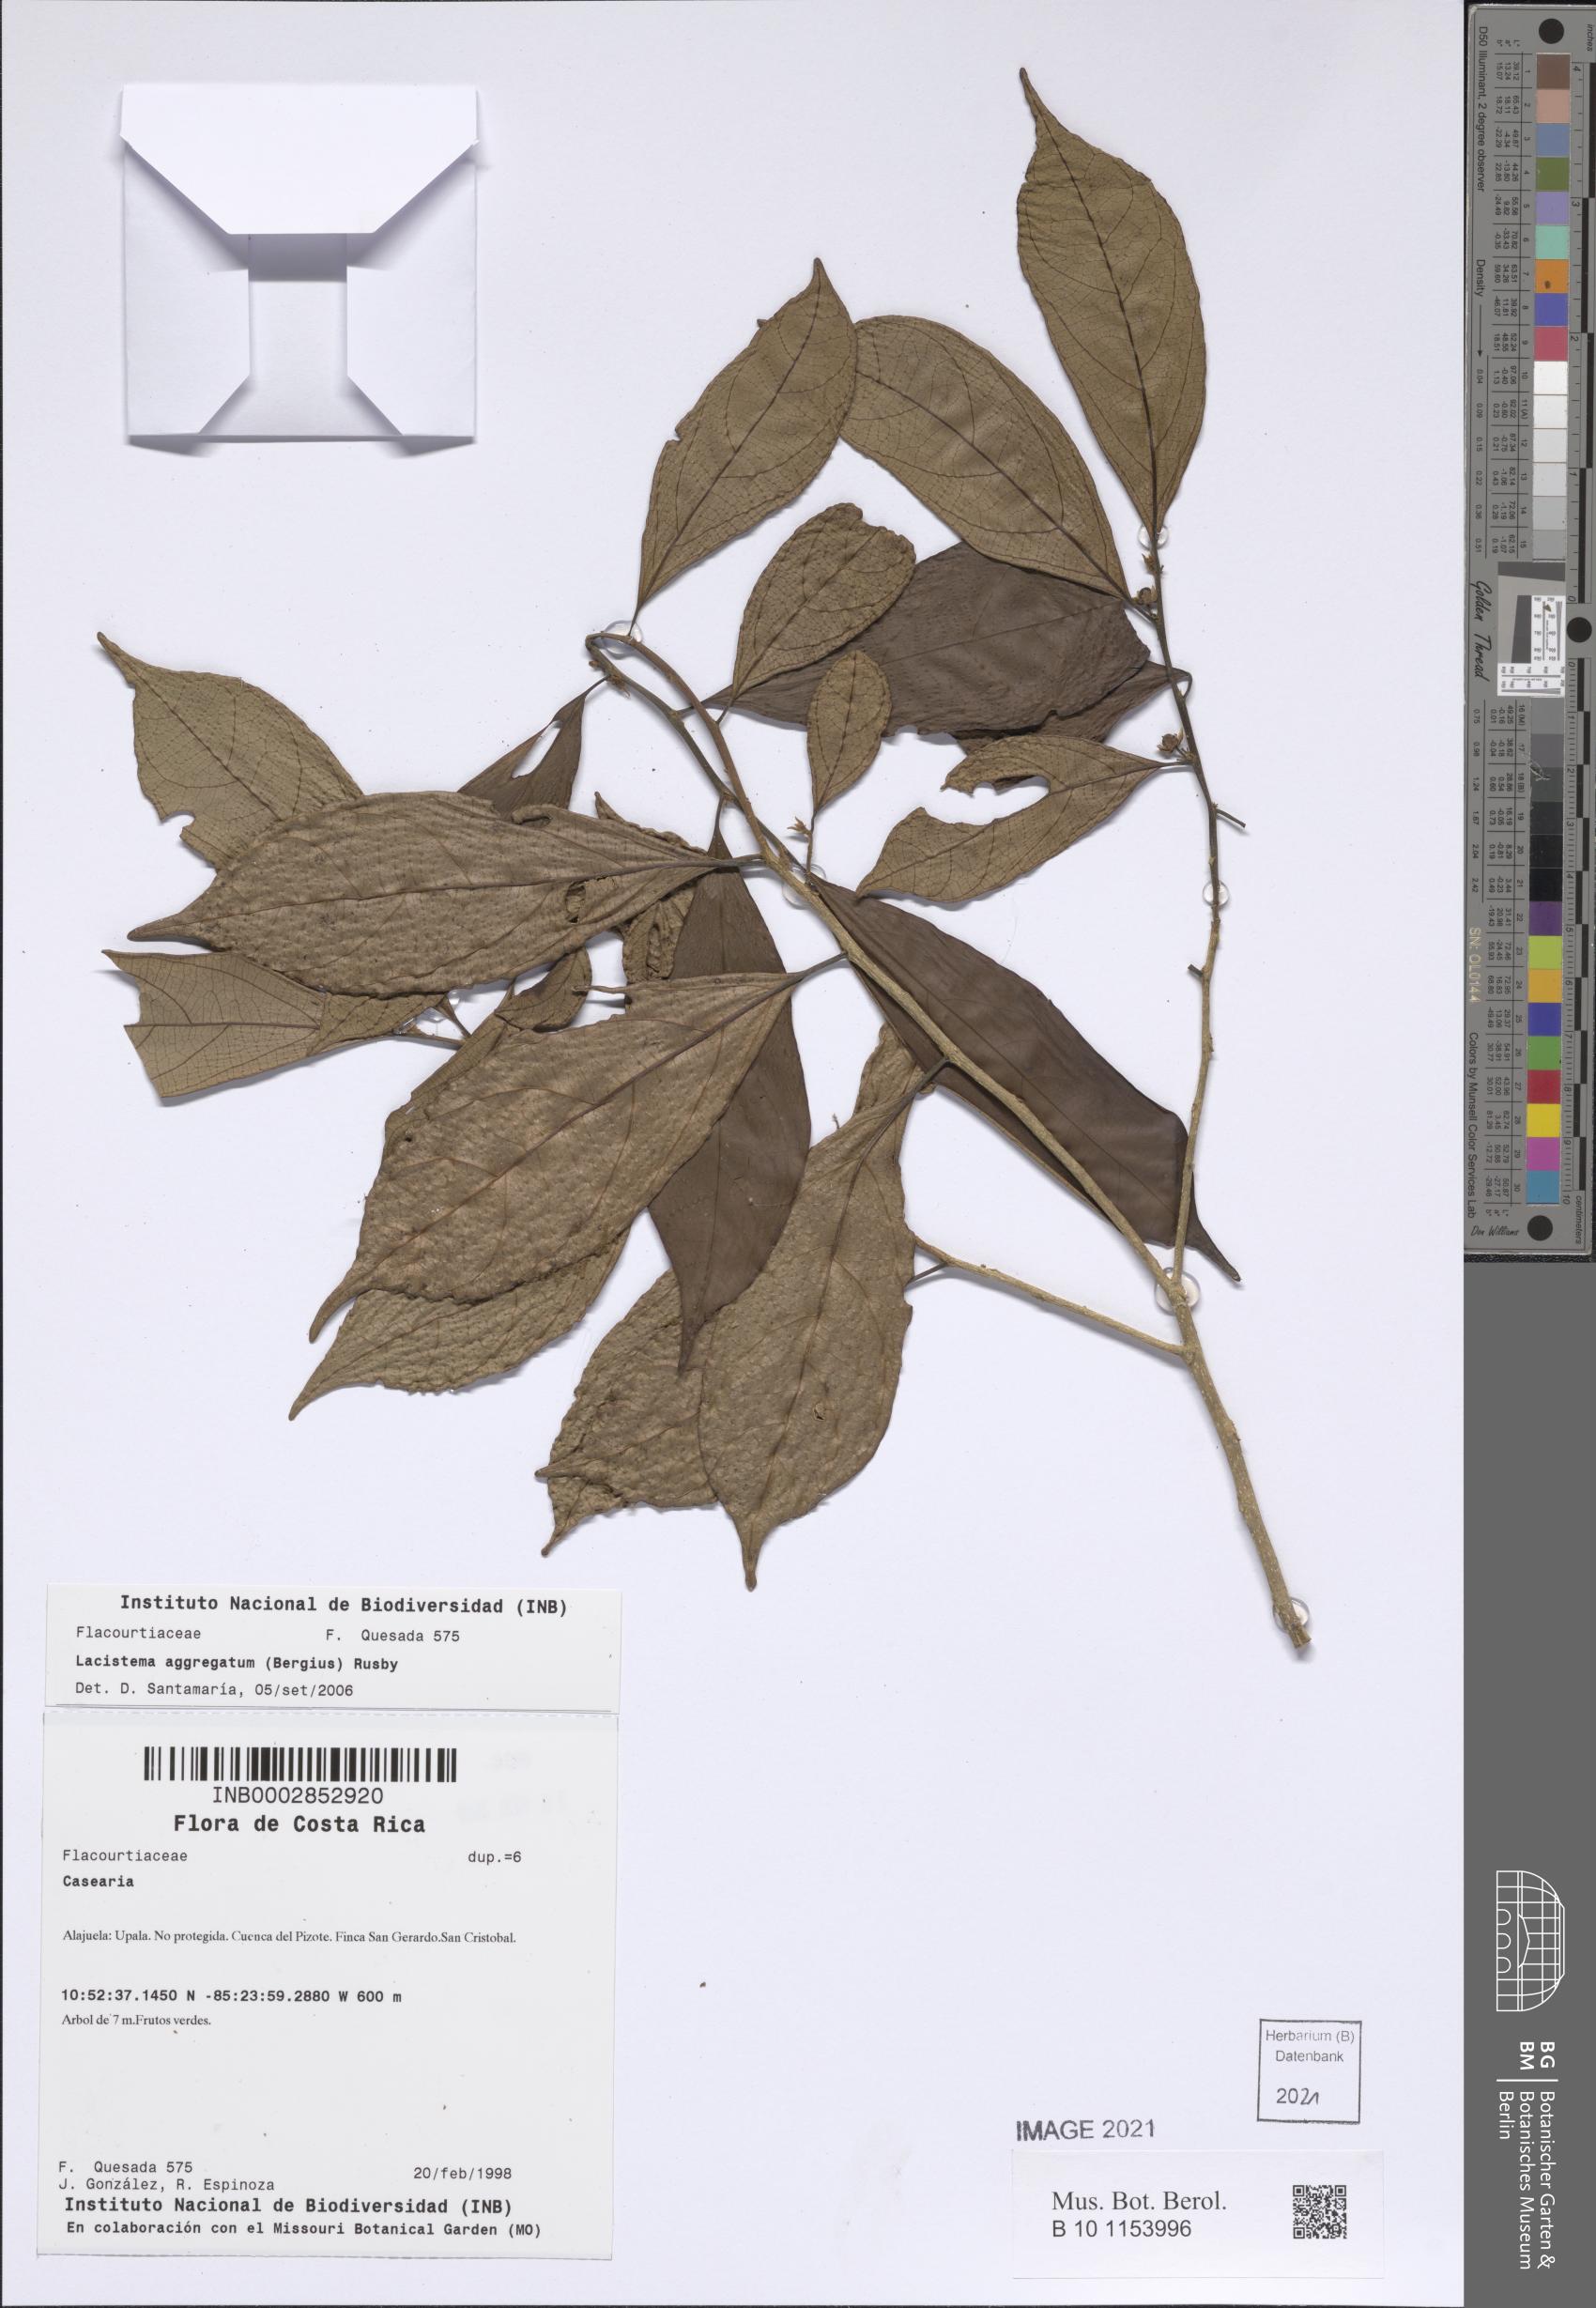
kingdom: Plantae
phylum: Tracheophyta
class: Magnoliopsida
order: Malpighiales
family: Salicaceae
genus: Casearia
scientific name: Casearia coronata
